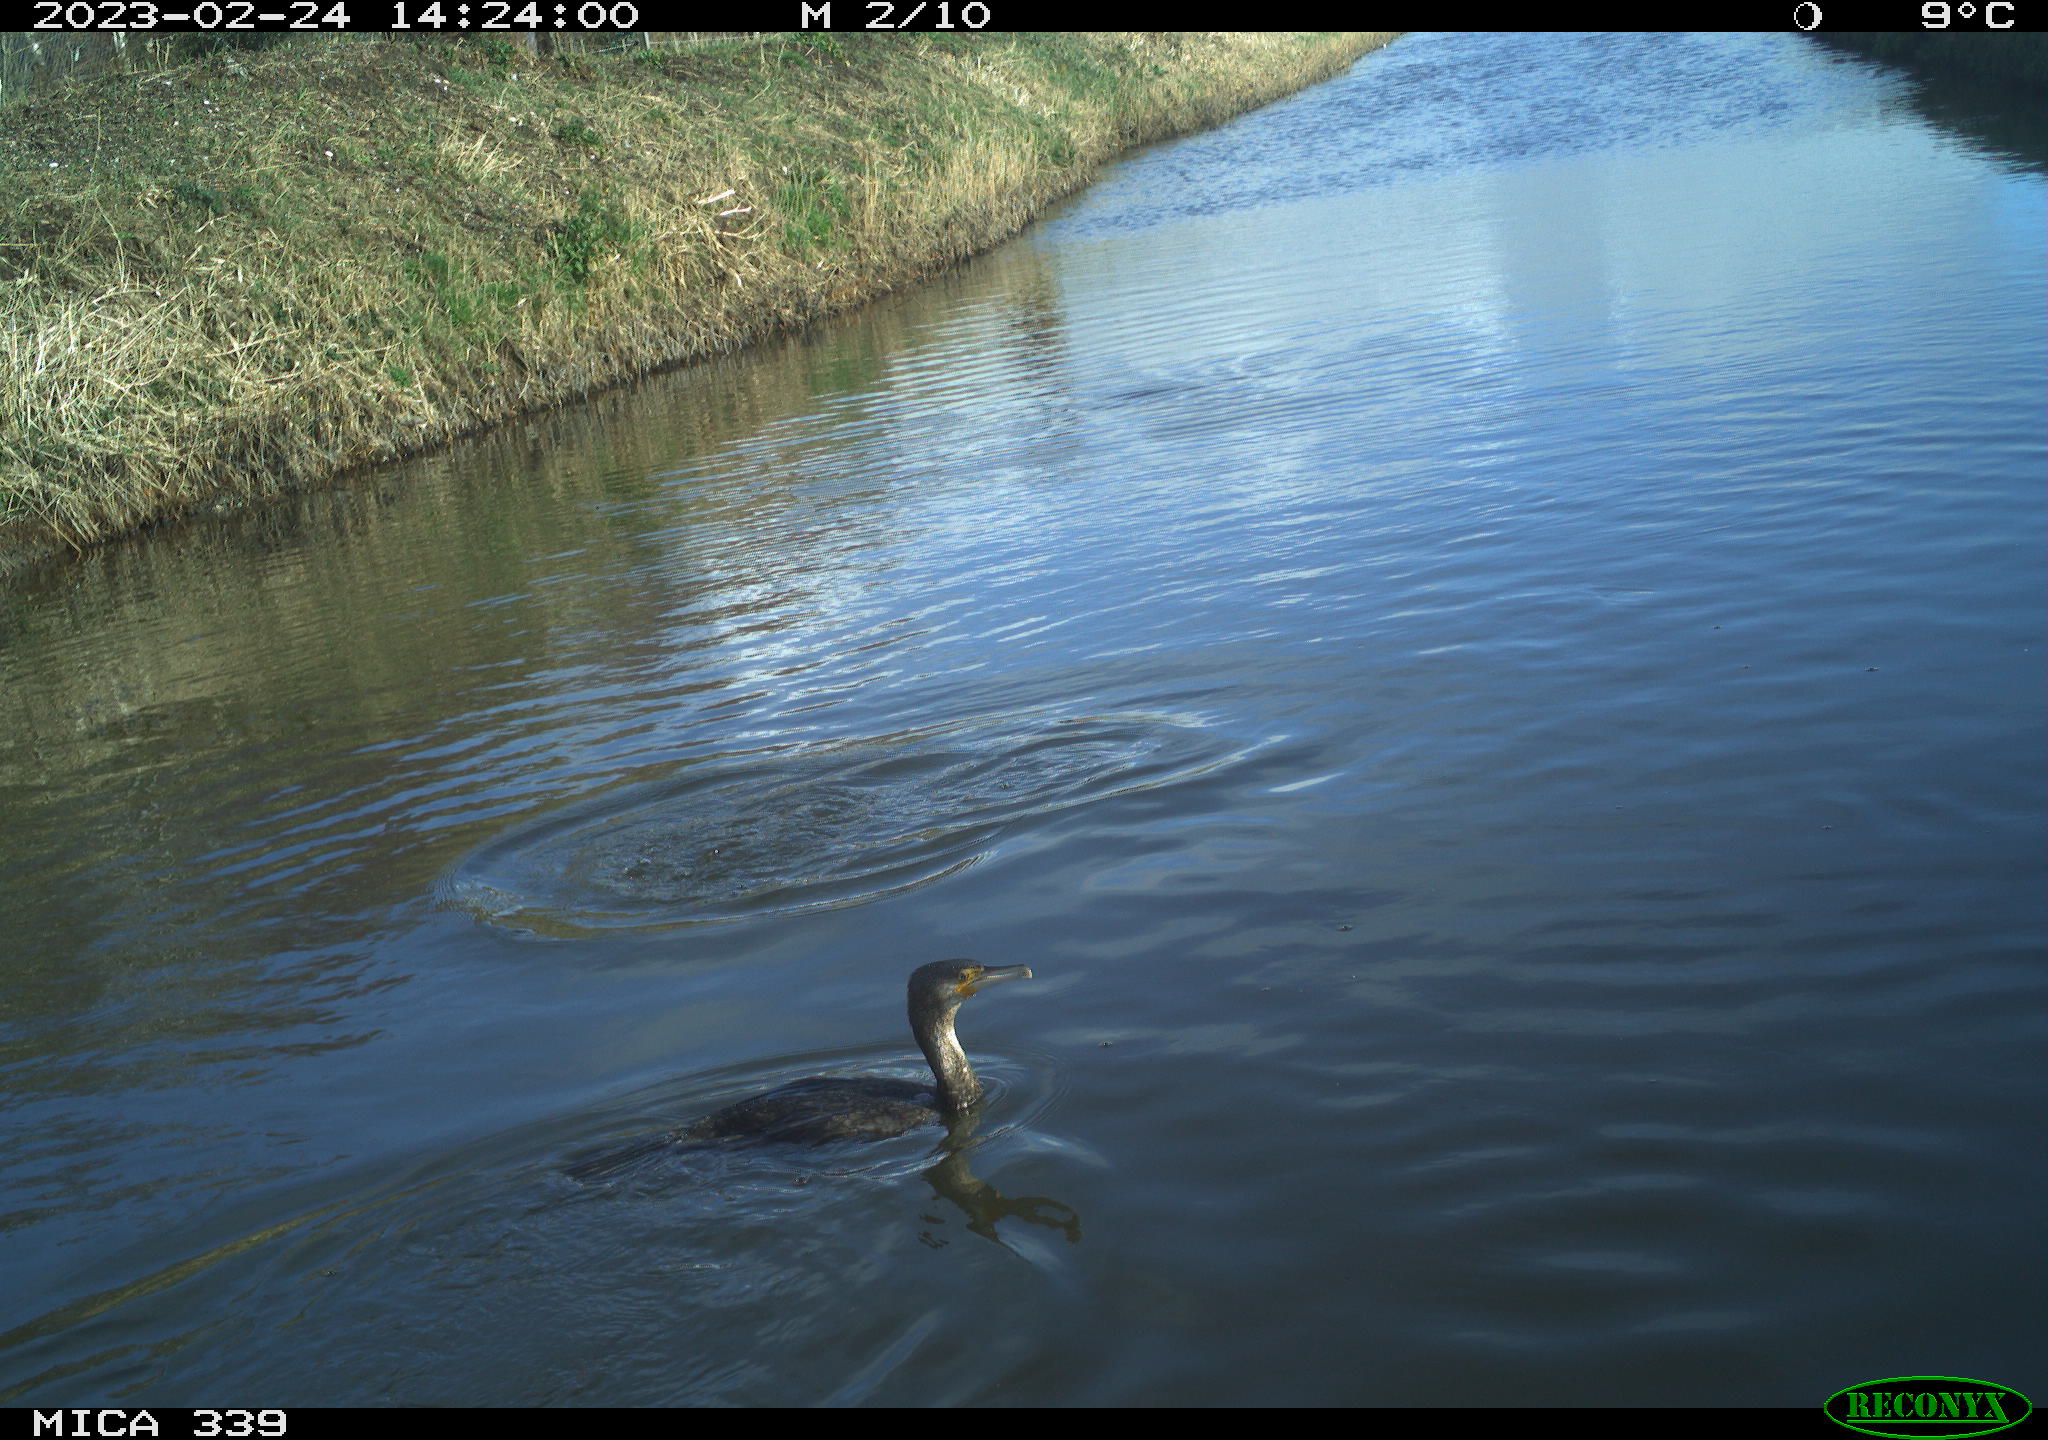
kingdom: Animalia
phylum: Chordata
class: Aves
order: Suliformes
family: Phalacrocoracidae
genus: Phalacrocorax
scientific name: Phalacrocorax carbo
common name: Great cormorant
